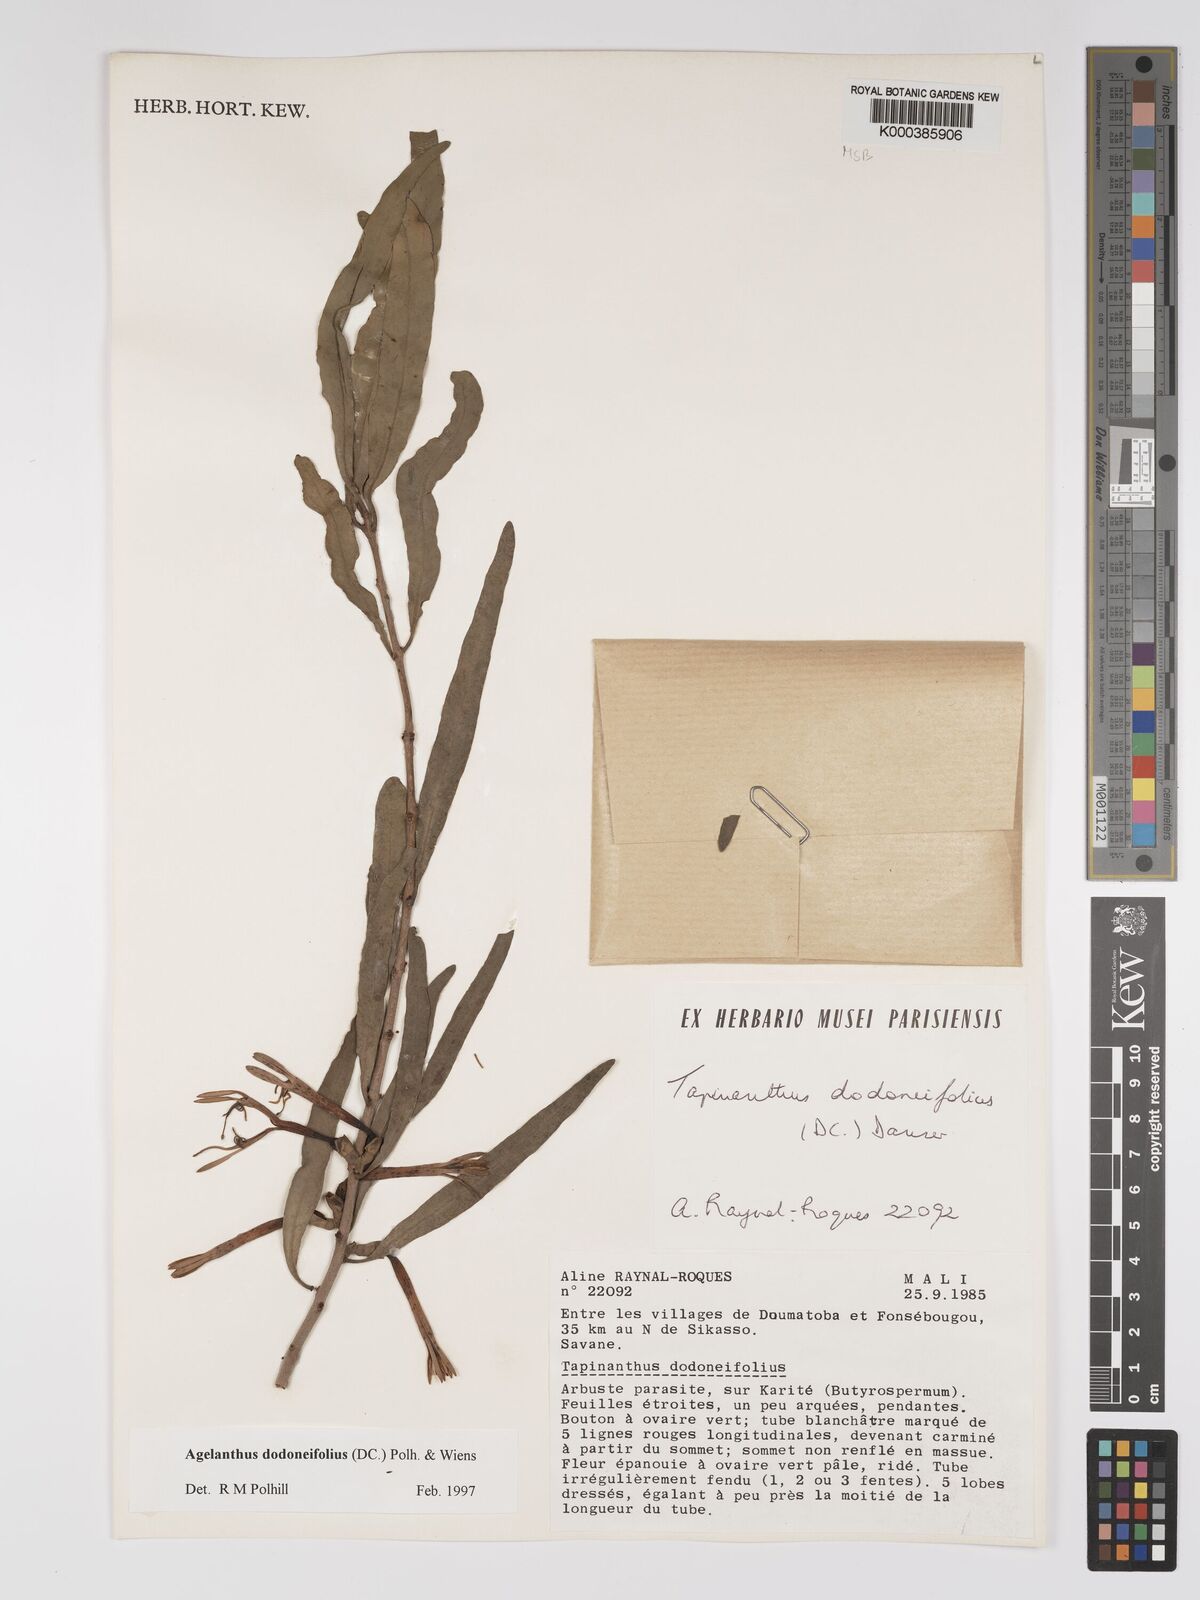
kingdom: Plantae
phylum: Tracheophyta
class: Magnoliopsida
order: Santalales
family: Loranthaceae
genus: Agelanthus
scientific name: Agelanthus dodoneifolius
